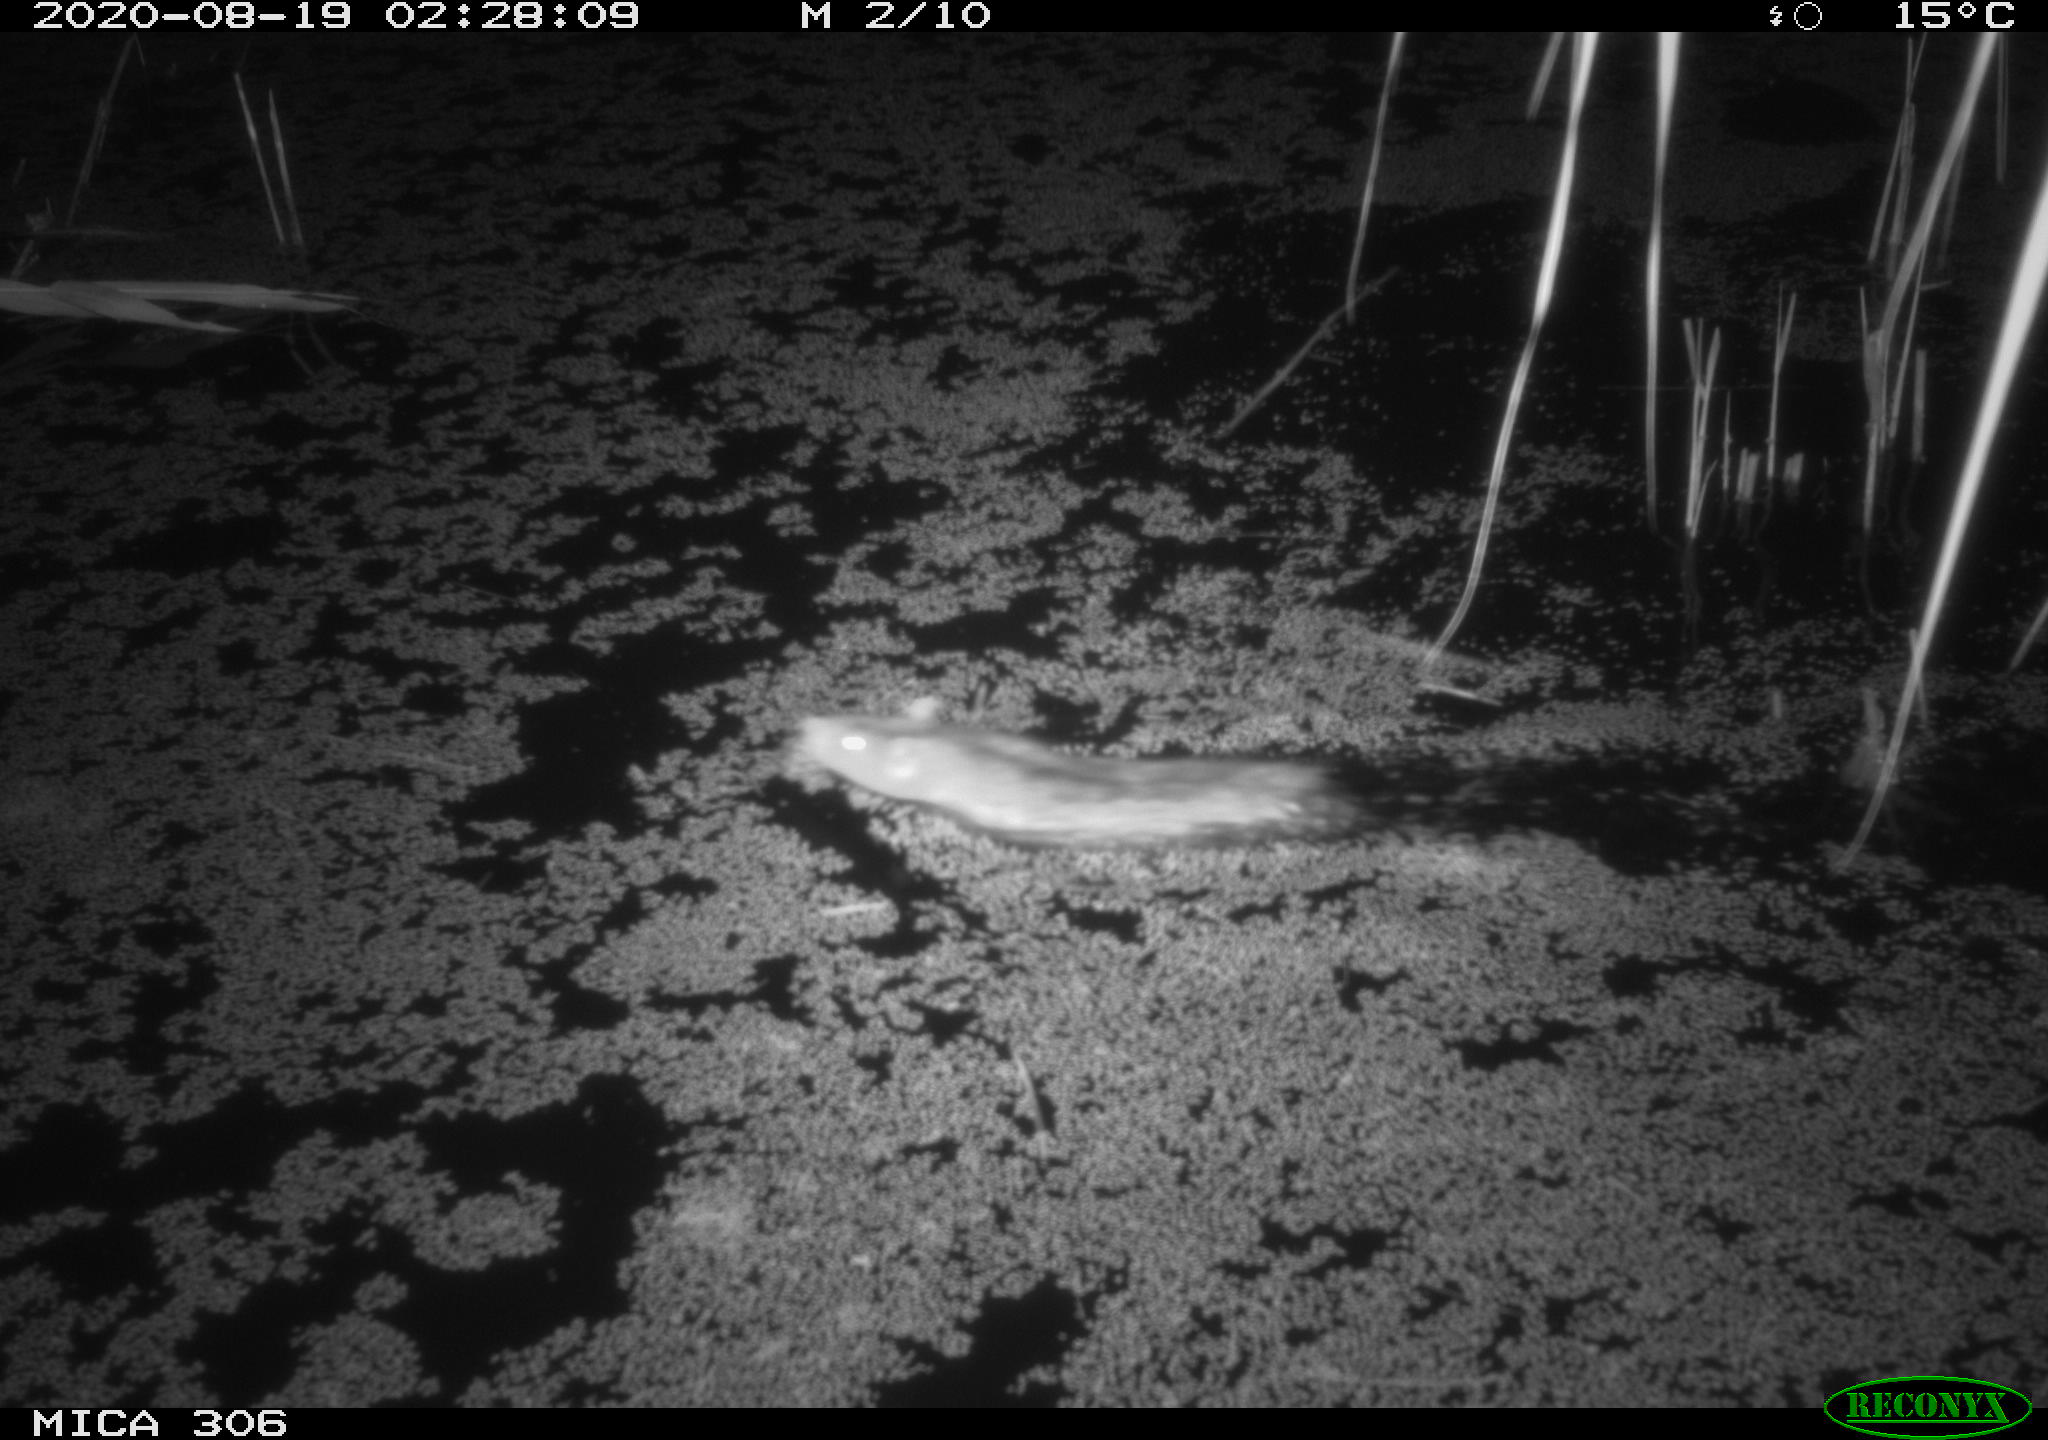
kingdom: Animalia
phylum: Chordata
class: Mammalia
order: Rodentia
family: Cricetidae
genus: Ondatra
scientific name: Ondatra zibethicus
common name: Muskrat
